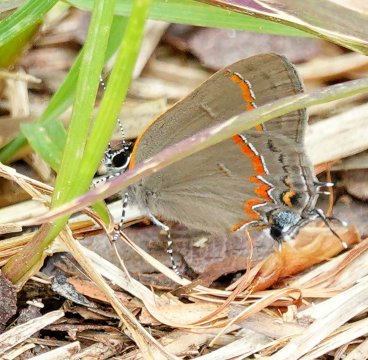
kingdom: Animalia
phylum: Arthropoda
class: Insecta
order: Lepidoptera
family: Lycaenidae
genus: Calycopis
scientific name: Calycopis cecrops
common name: Red-banded Hairstreak
